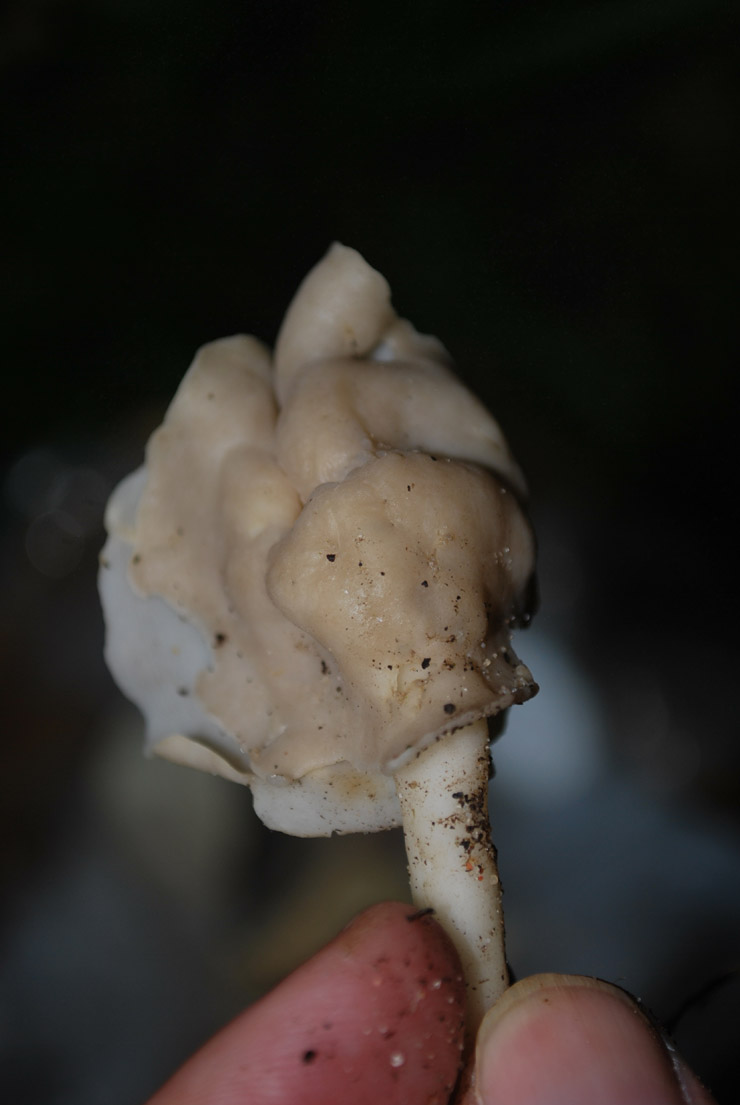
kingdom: Fungi
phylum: Ascomycota
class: Pezizomycetes
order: Pezizales
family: Helvellaceae
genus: Helvella
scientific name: Helvella elastica
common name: elastik-foldhat
